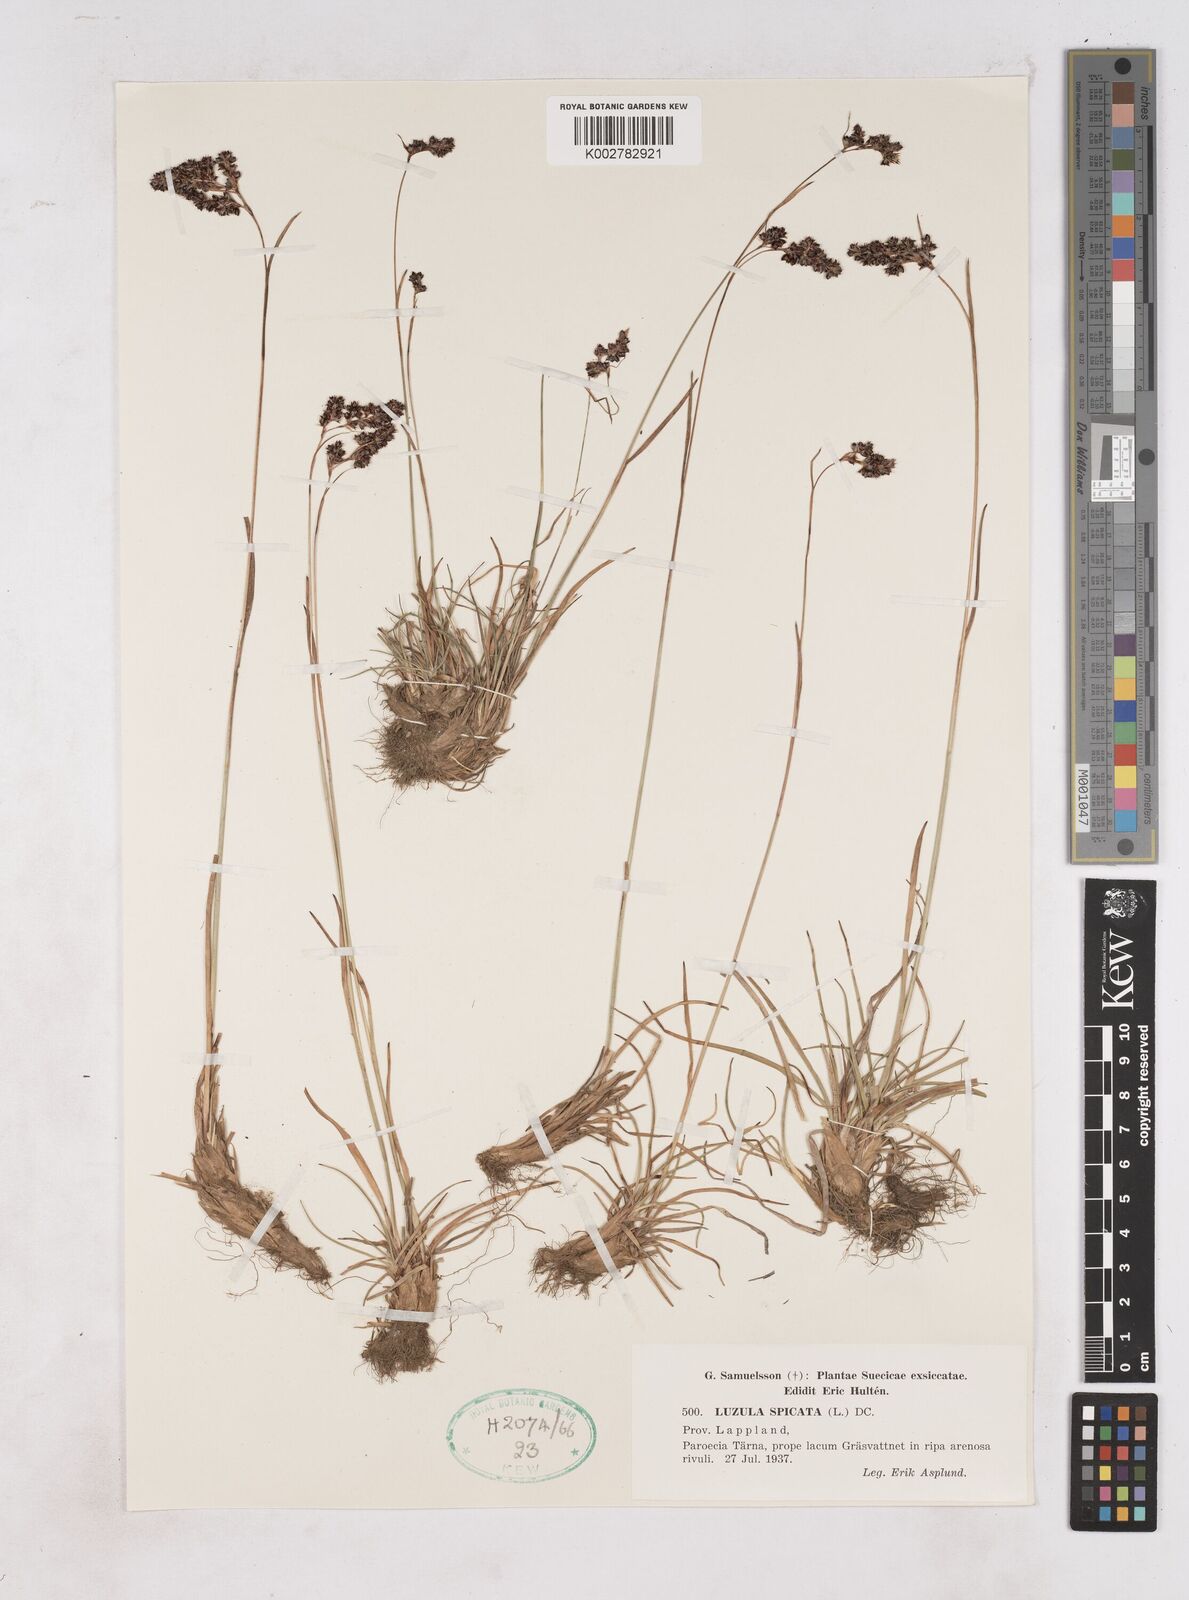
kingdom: Plantae
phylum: Tracheophyta
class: Liliopsida
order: Poales
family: Juncaceae
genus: Luzula
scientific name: Luzula campestris
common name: Field wood-rush
